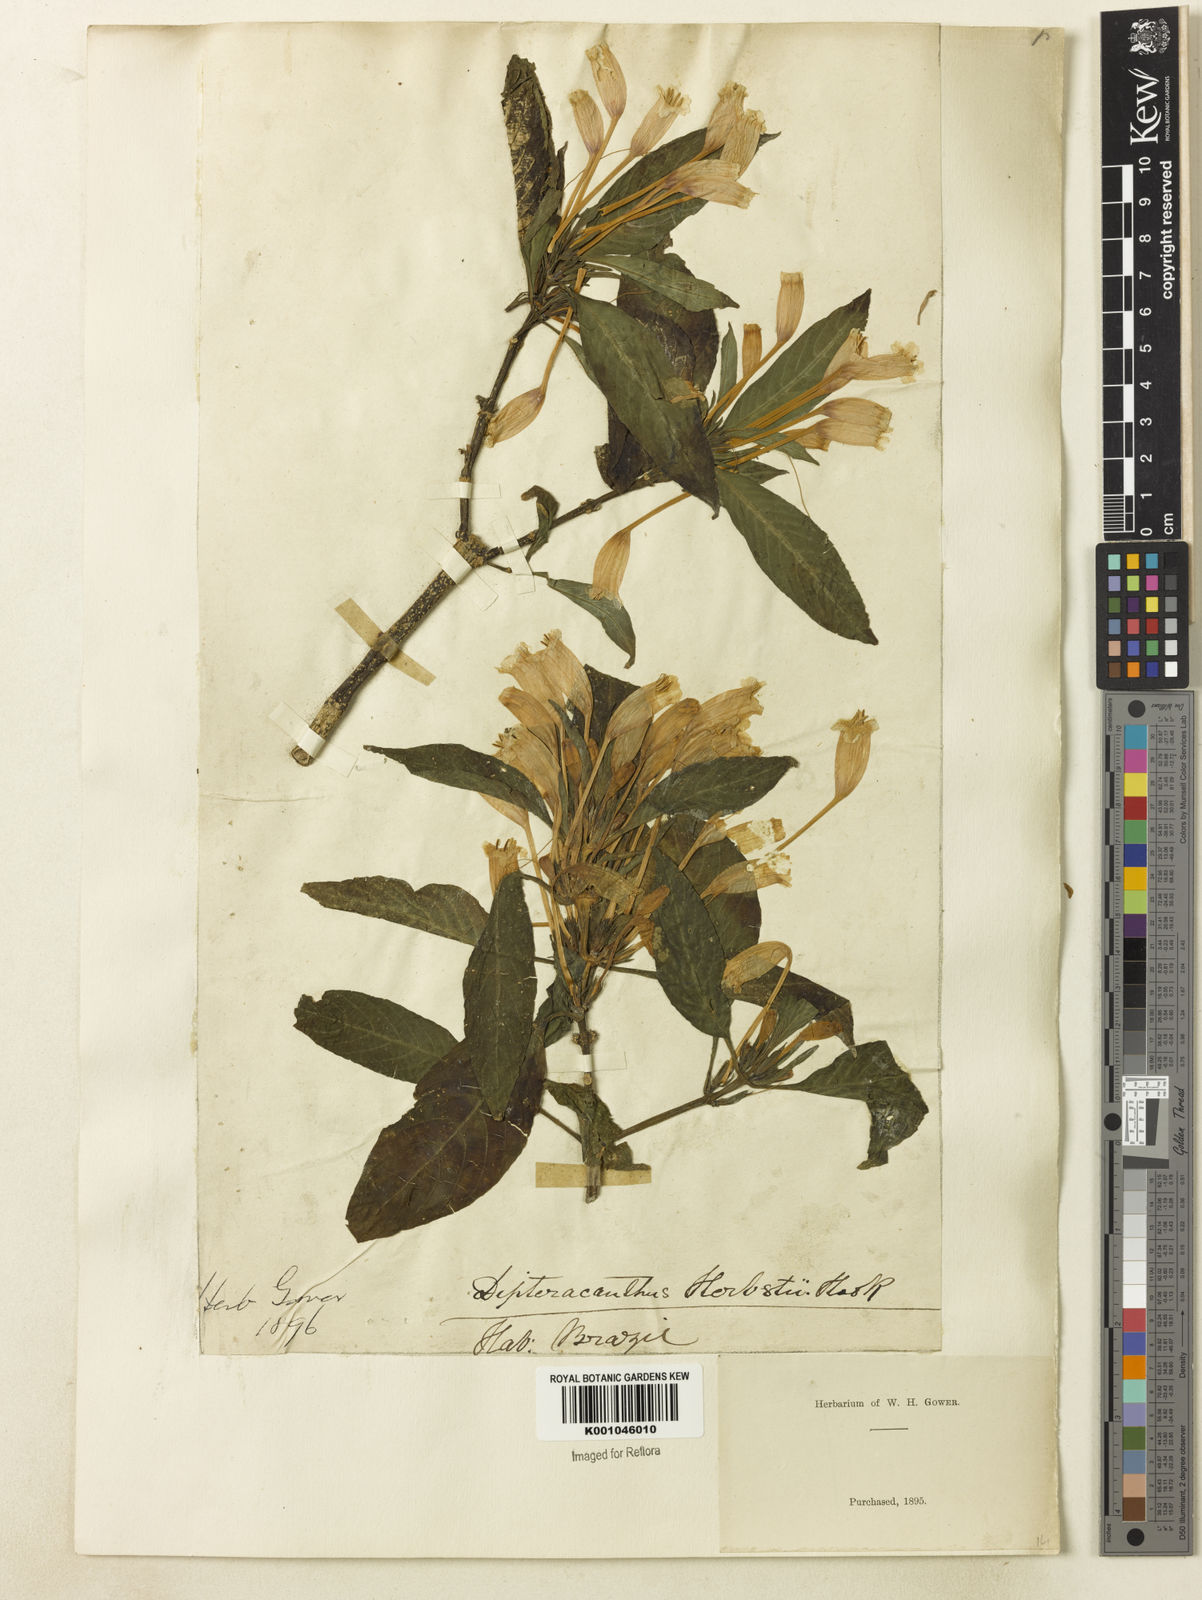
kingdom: Plantae
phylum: Tracheophyta
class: Magnoliopsida
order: Lamiales
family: Acanthaceae
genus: Ruellia
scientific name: Ruellia herbstii
